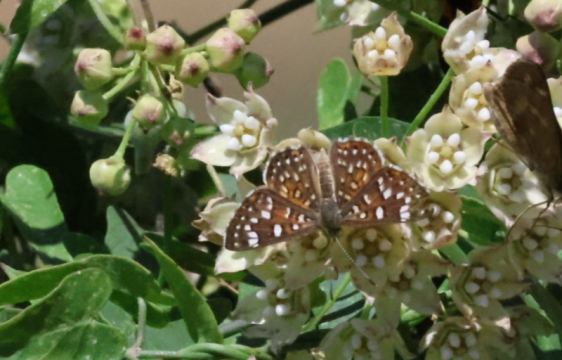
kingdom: Animalia
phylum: Arthropoda
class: Insecta
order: Lepidoptera
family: Riodinidae
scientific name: Riodinidae
